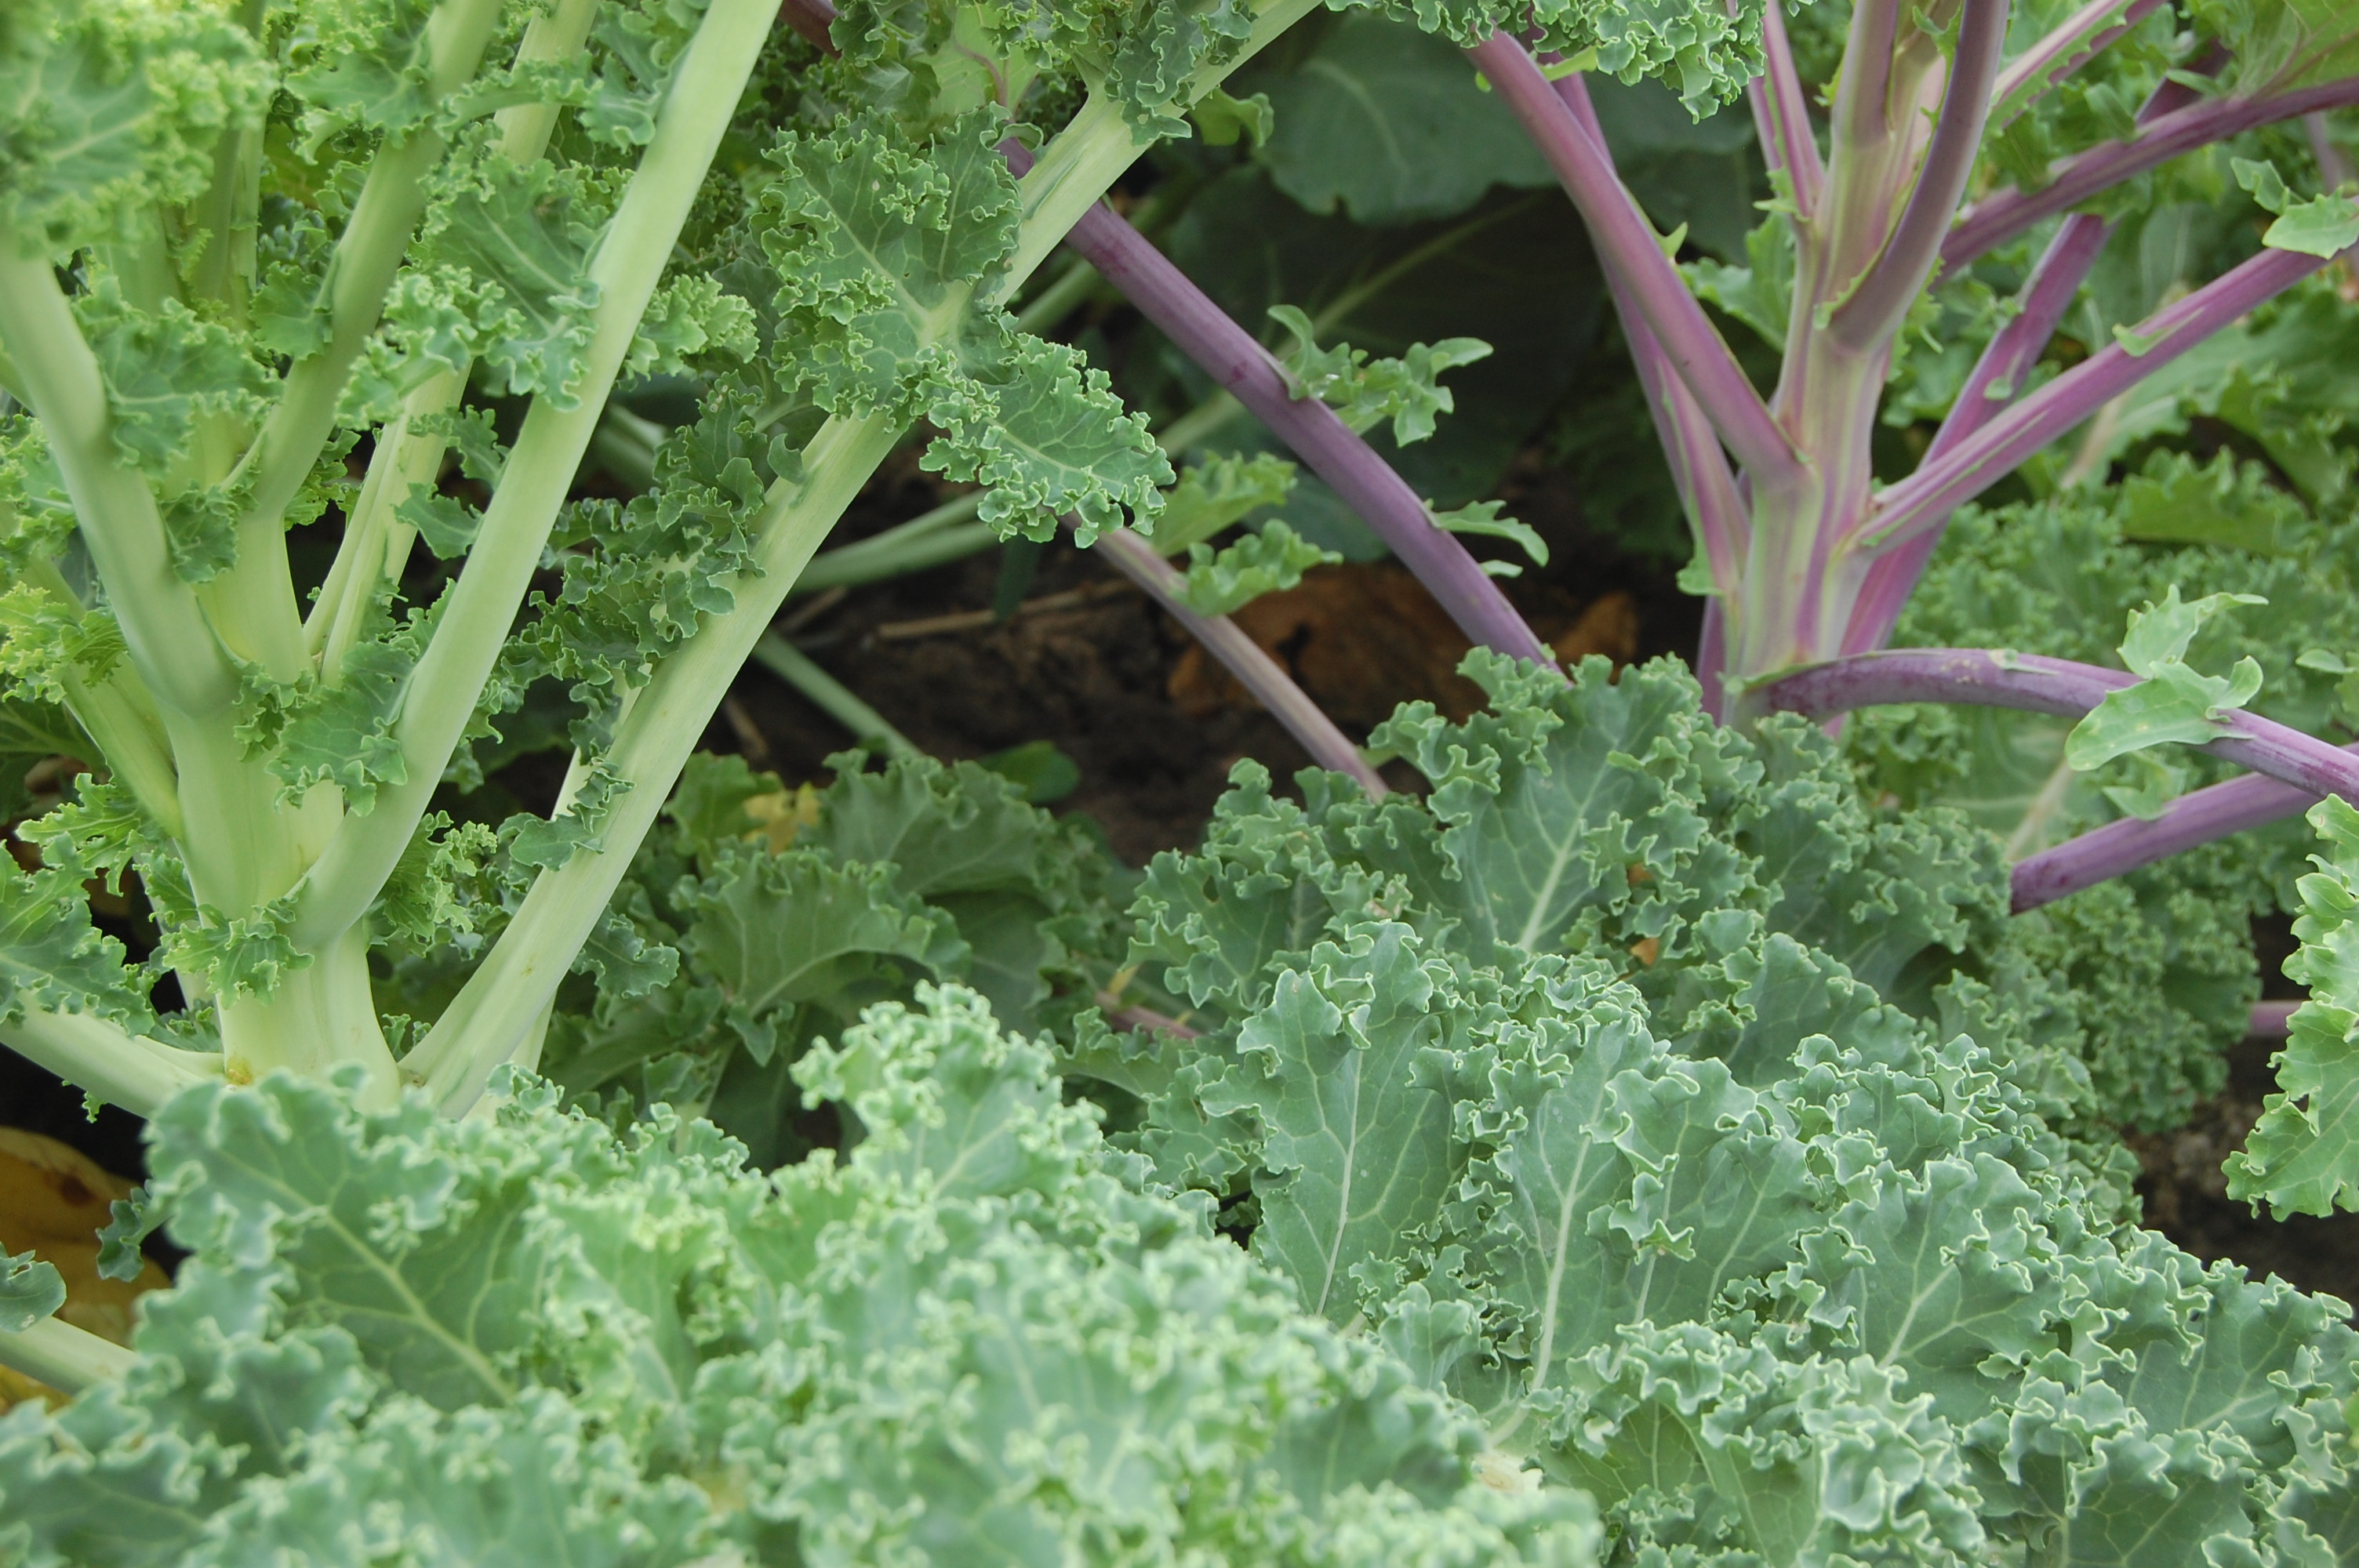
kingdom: Plantae
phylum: Tracheophyta
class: Magnoliopsida
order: Brassicales
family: Brassicaceae
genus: Brassica
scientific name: Brassica oleracea
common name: Cabbage
